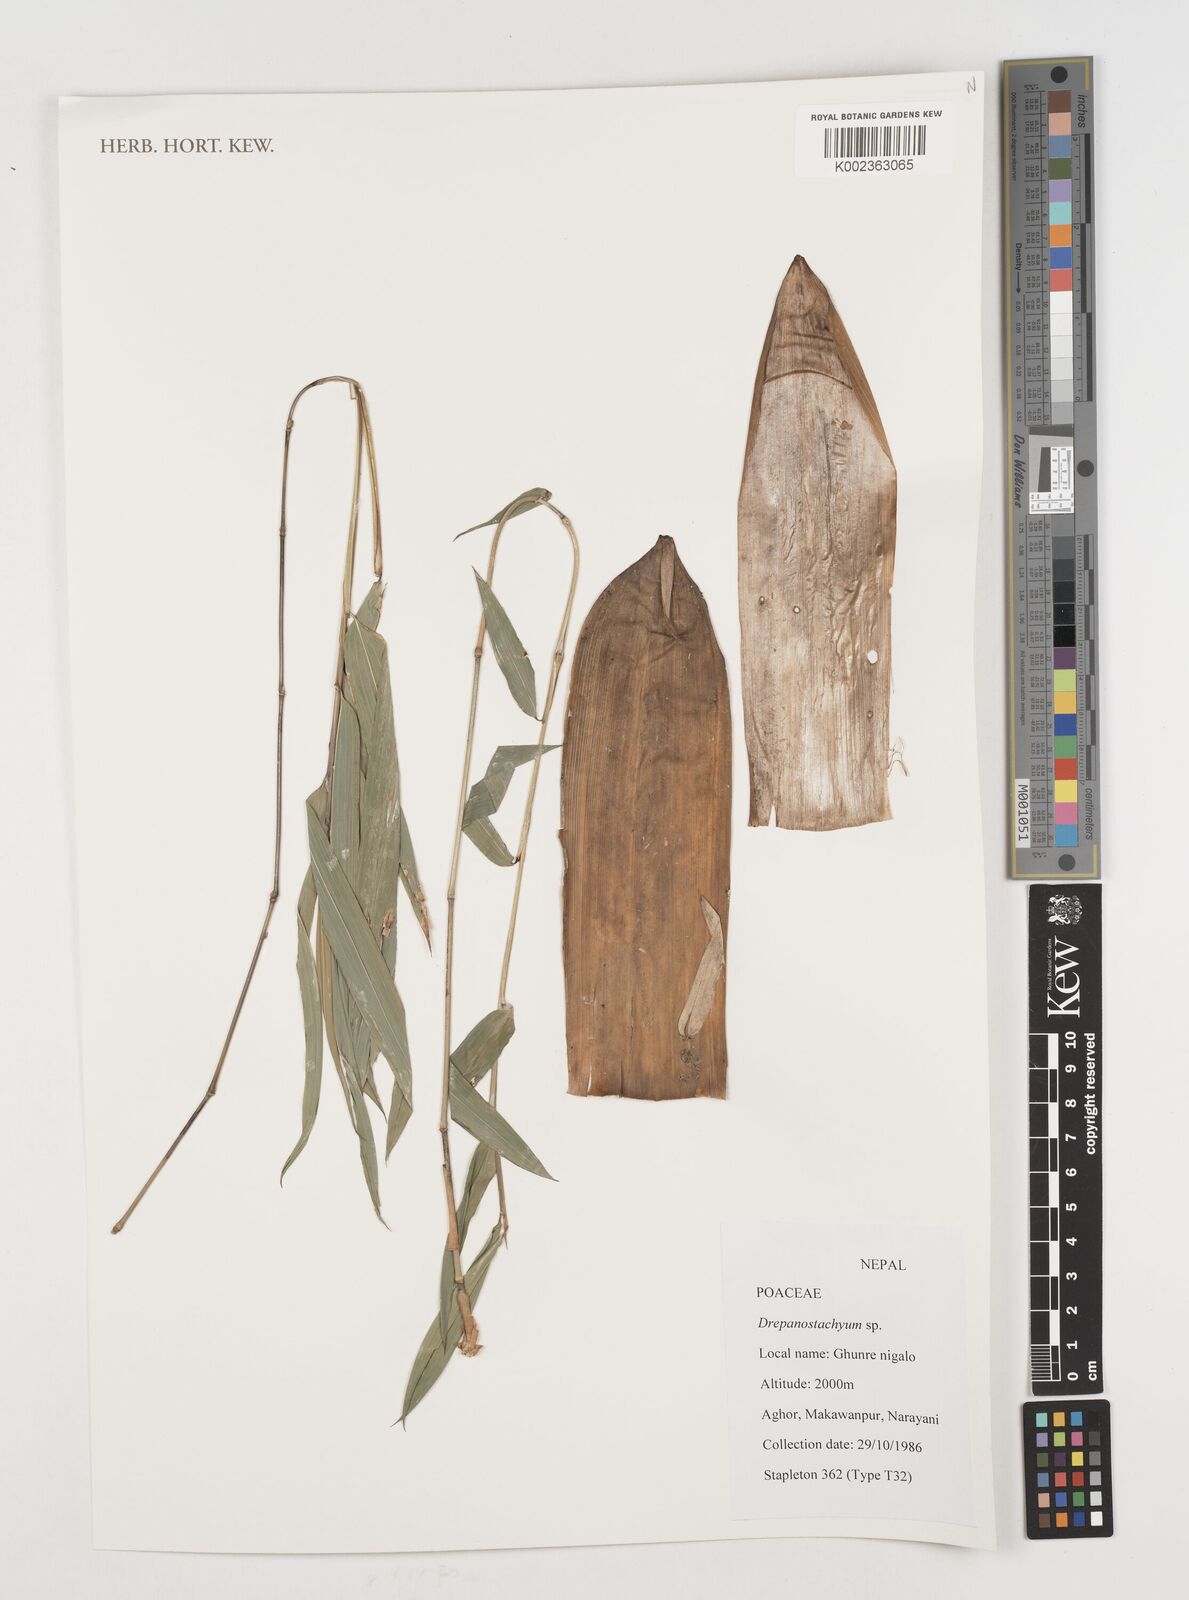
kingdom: Plantae
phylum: Tracheophyta
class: Liliopsida
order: Poales
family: Poaceae
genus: Drepanostachyum
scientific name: Drepanostachyum
